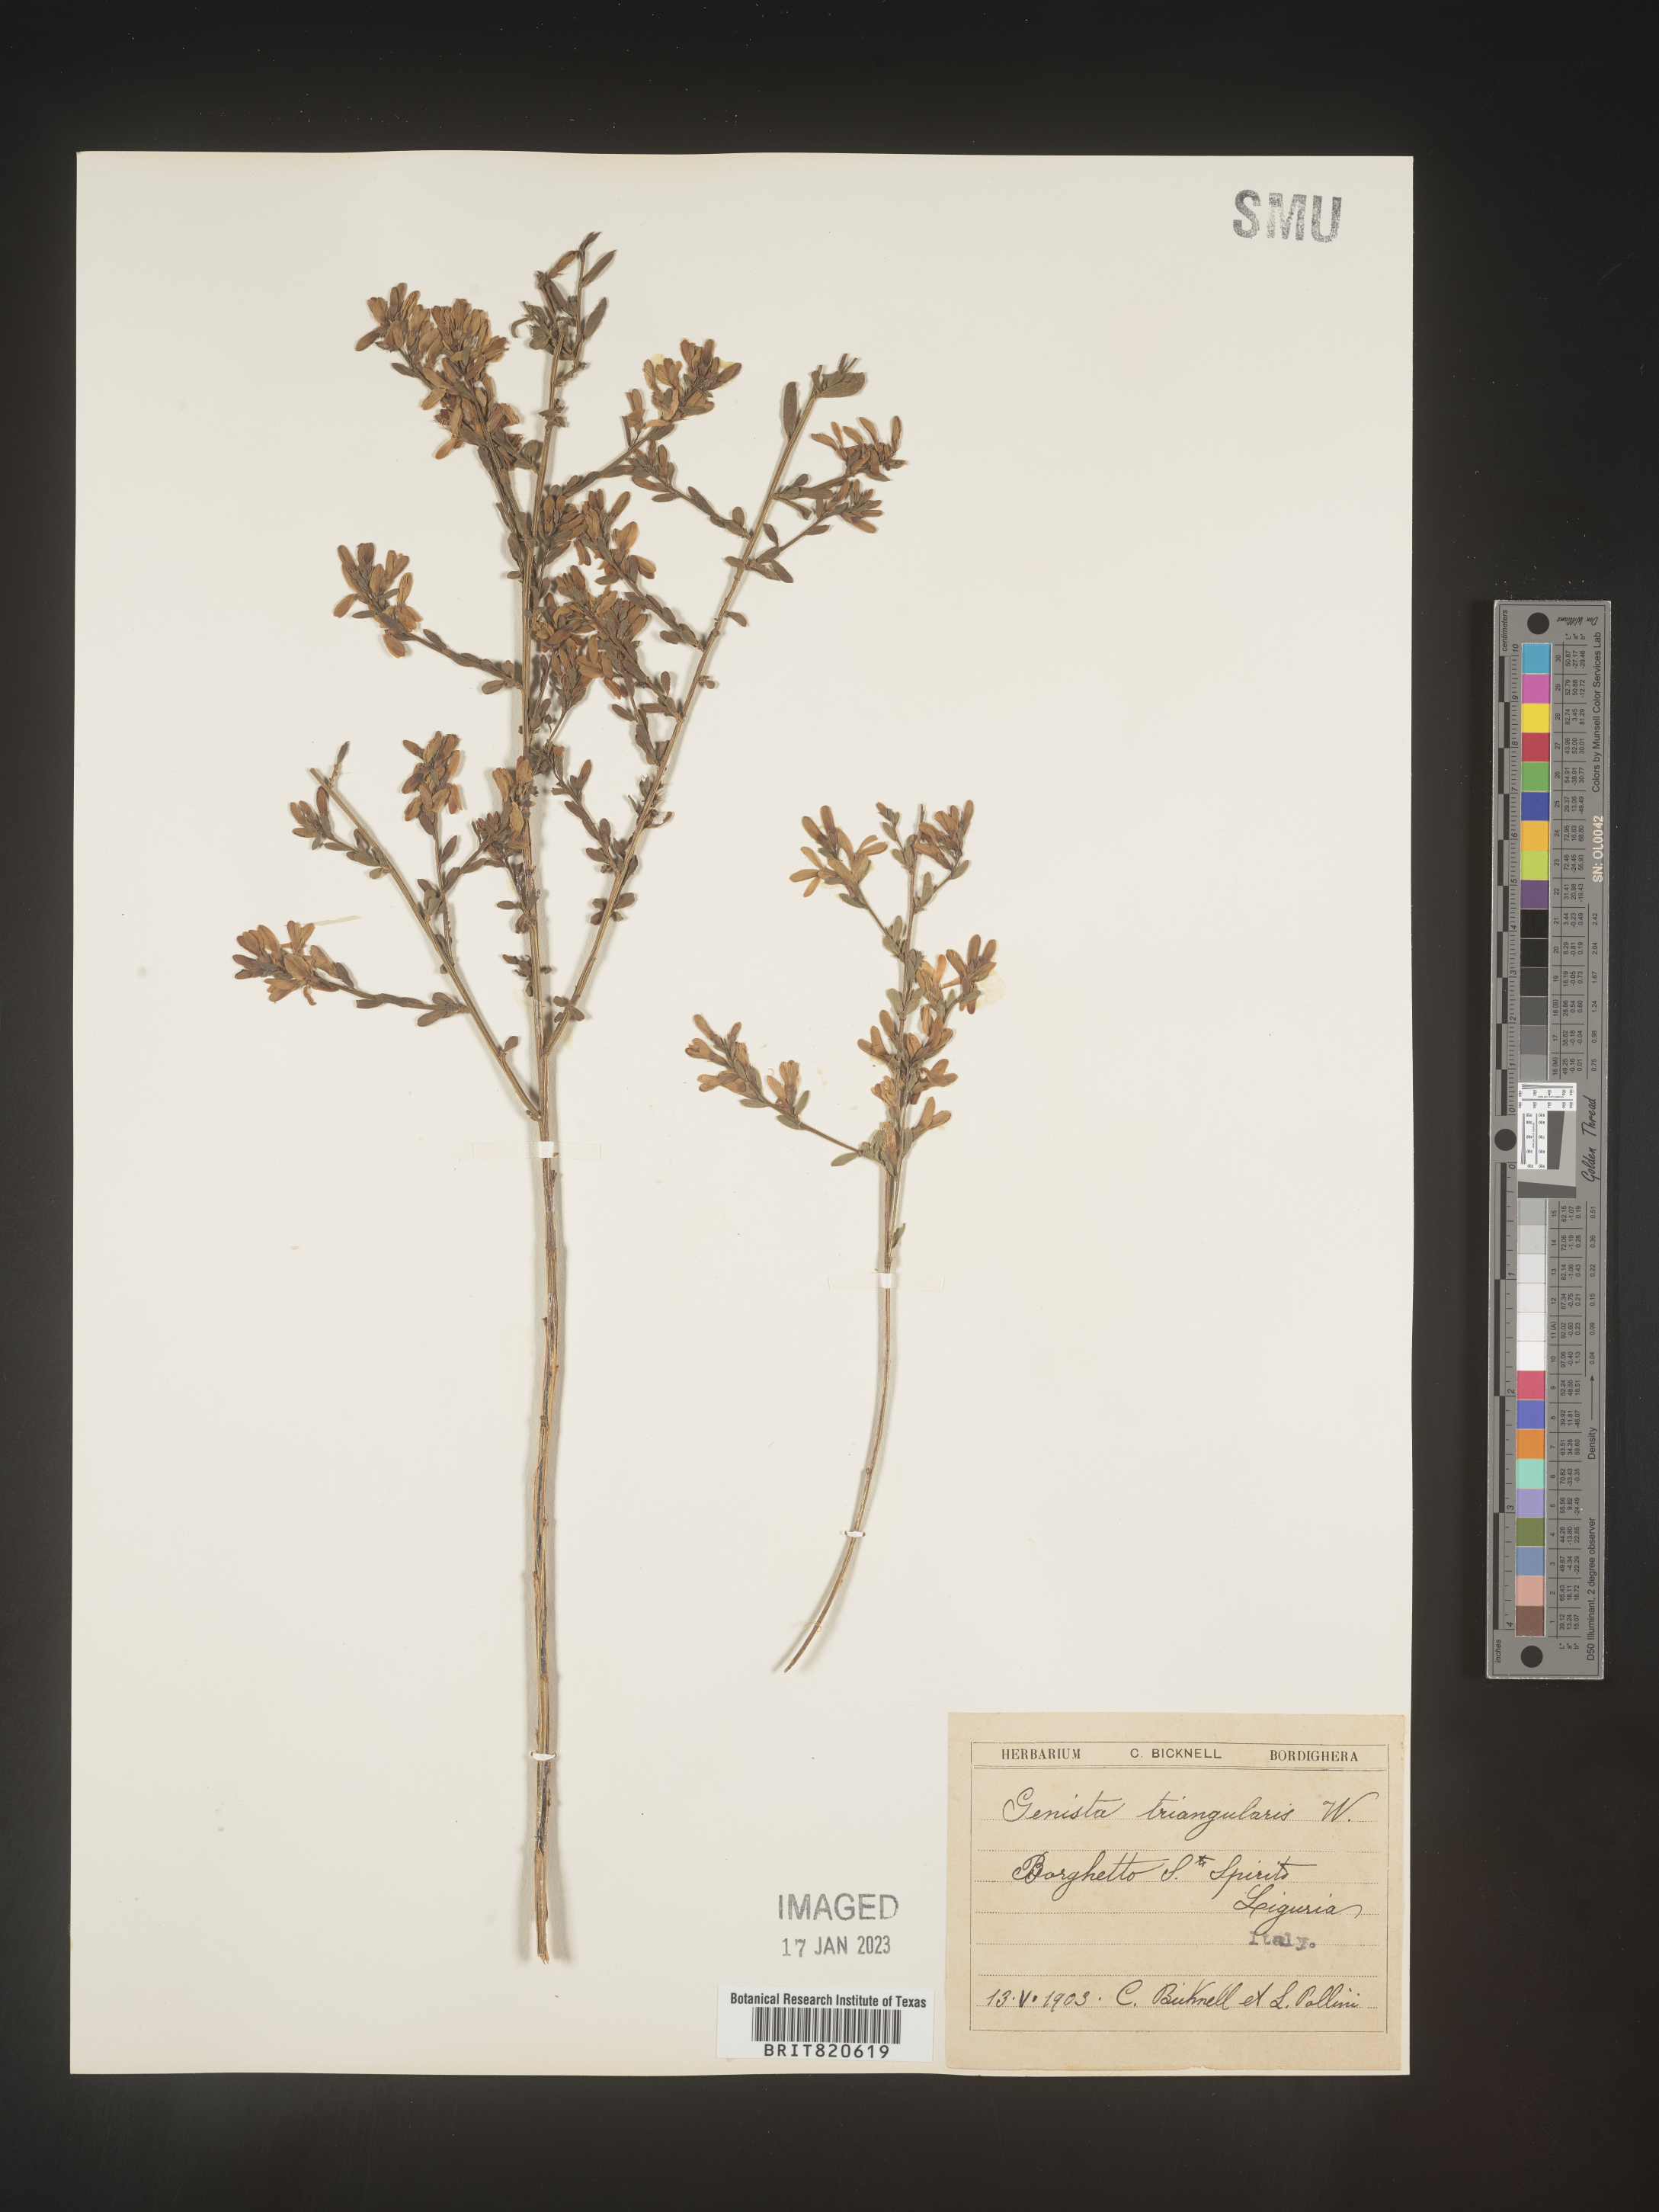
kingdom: Plantae
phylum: Tracheophyta
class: Magnoliopsida
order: Fabales
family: Fabaceae
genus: Genista
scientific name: Genista
